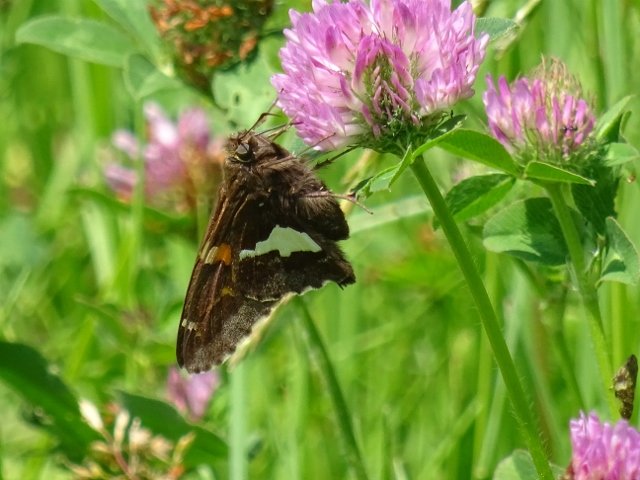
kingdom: Animalia
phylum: Arthropoda
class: Insecta
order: Lepidoptera
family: Hesperiidae
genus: Epargyreus
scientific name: Epargyreus clarus
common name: Silver-spotted Skipper
